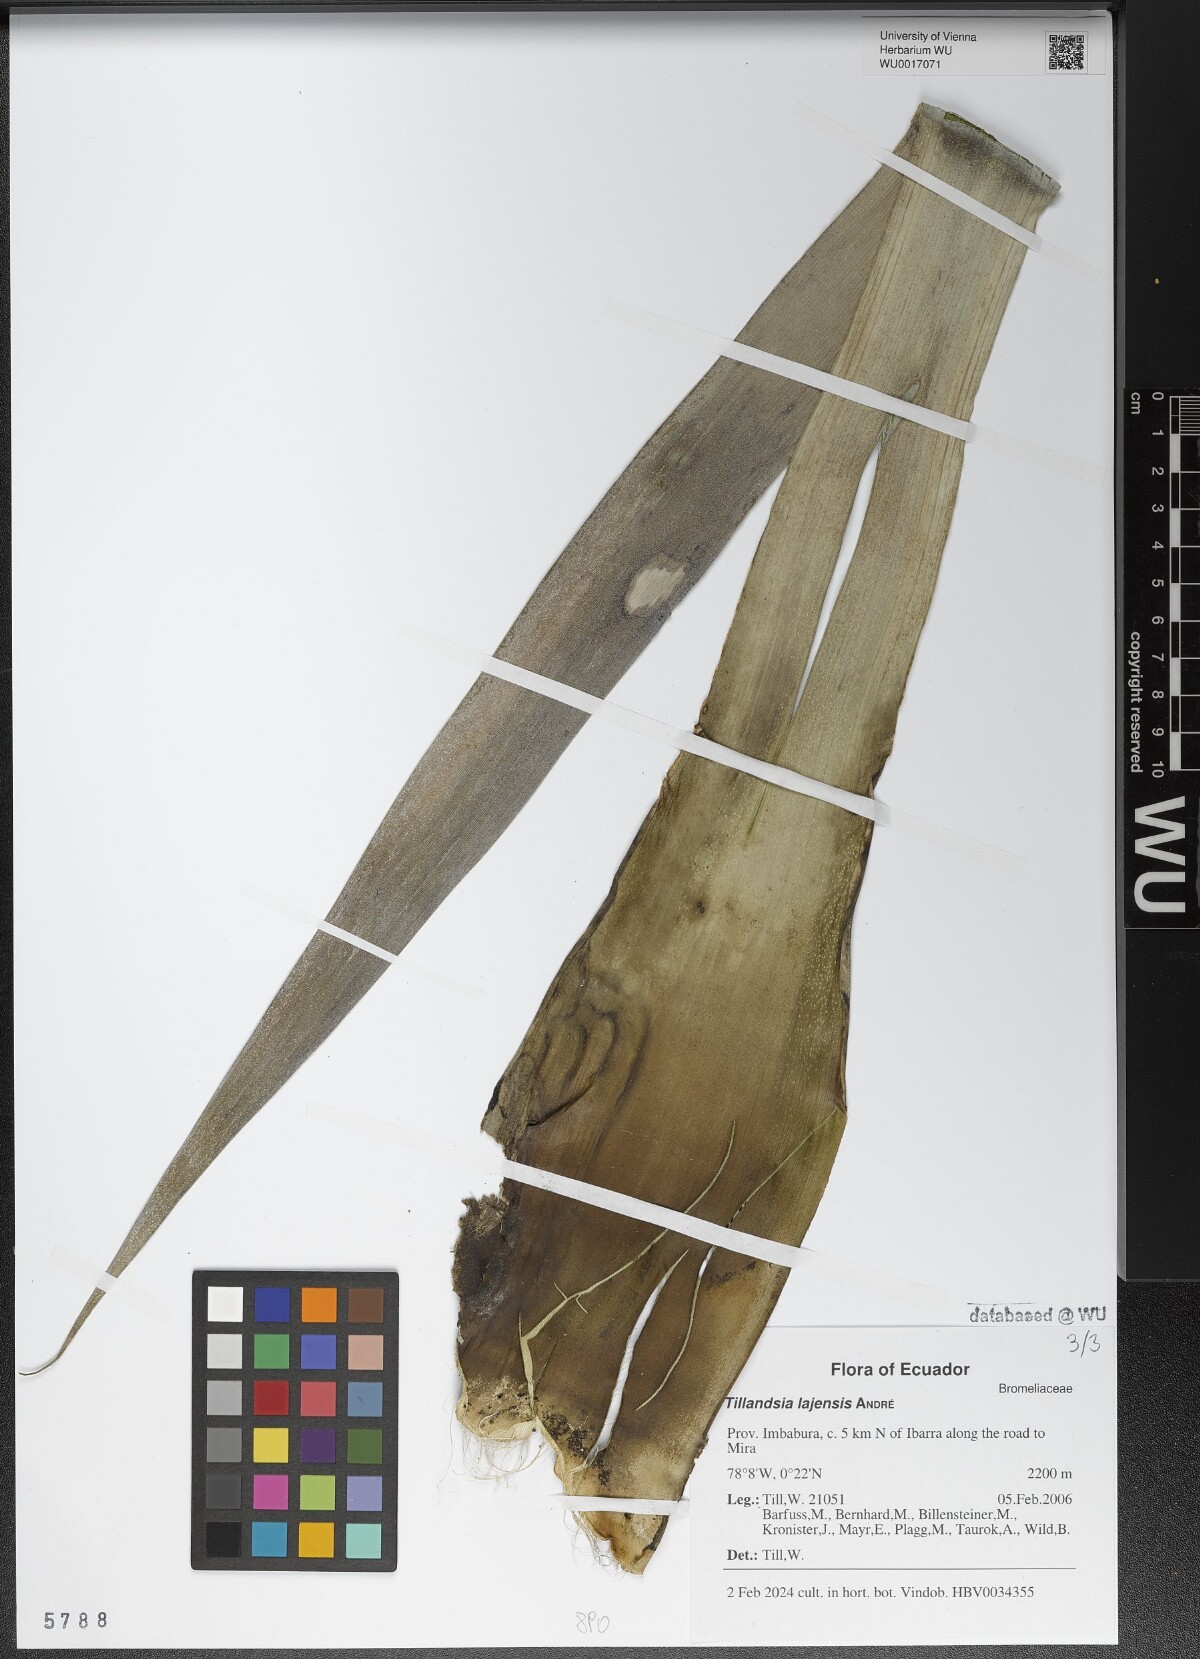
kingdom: Plantae
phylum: Tracheophyta
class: Liliopsida
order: Poales
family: Bromeliaceae
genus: Tillandsia
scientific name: Tillandsia lajensis
